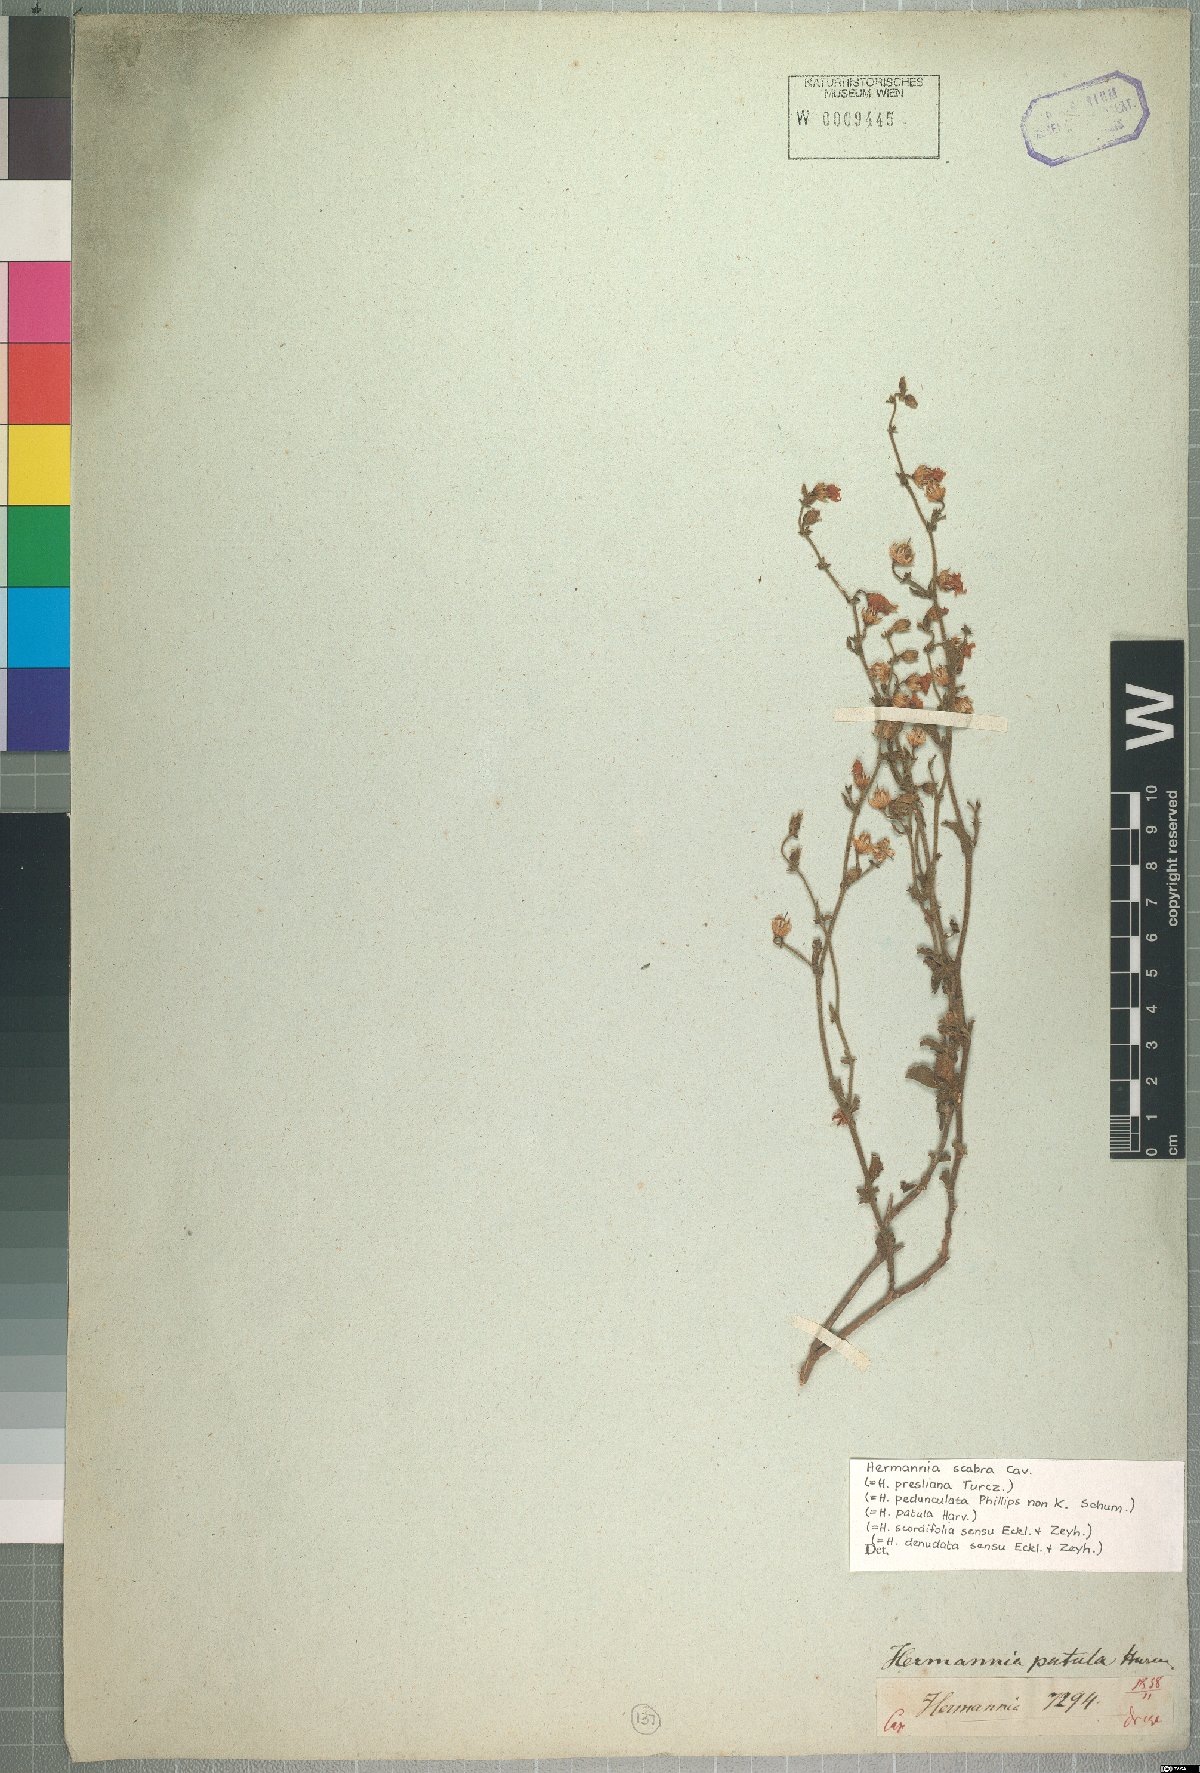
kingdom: Plantae
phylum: Tracheophyta
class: Magnoliopsida
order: Malvales
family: Malvaceae
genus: Hermannia
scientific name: Hermannia scabra
